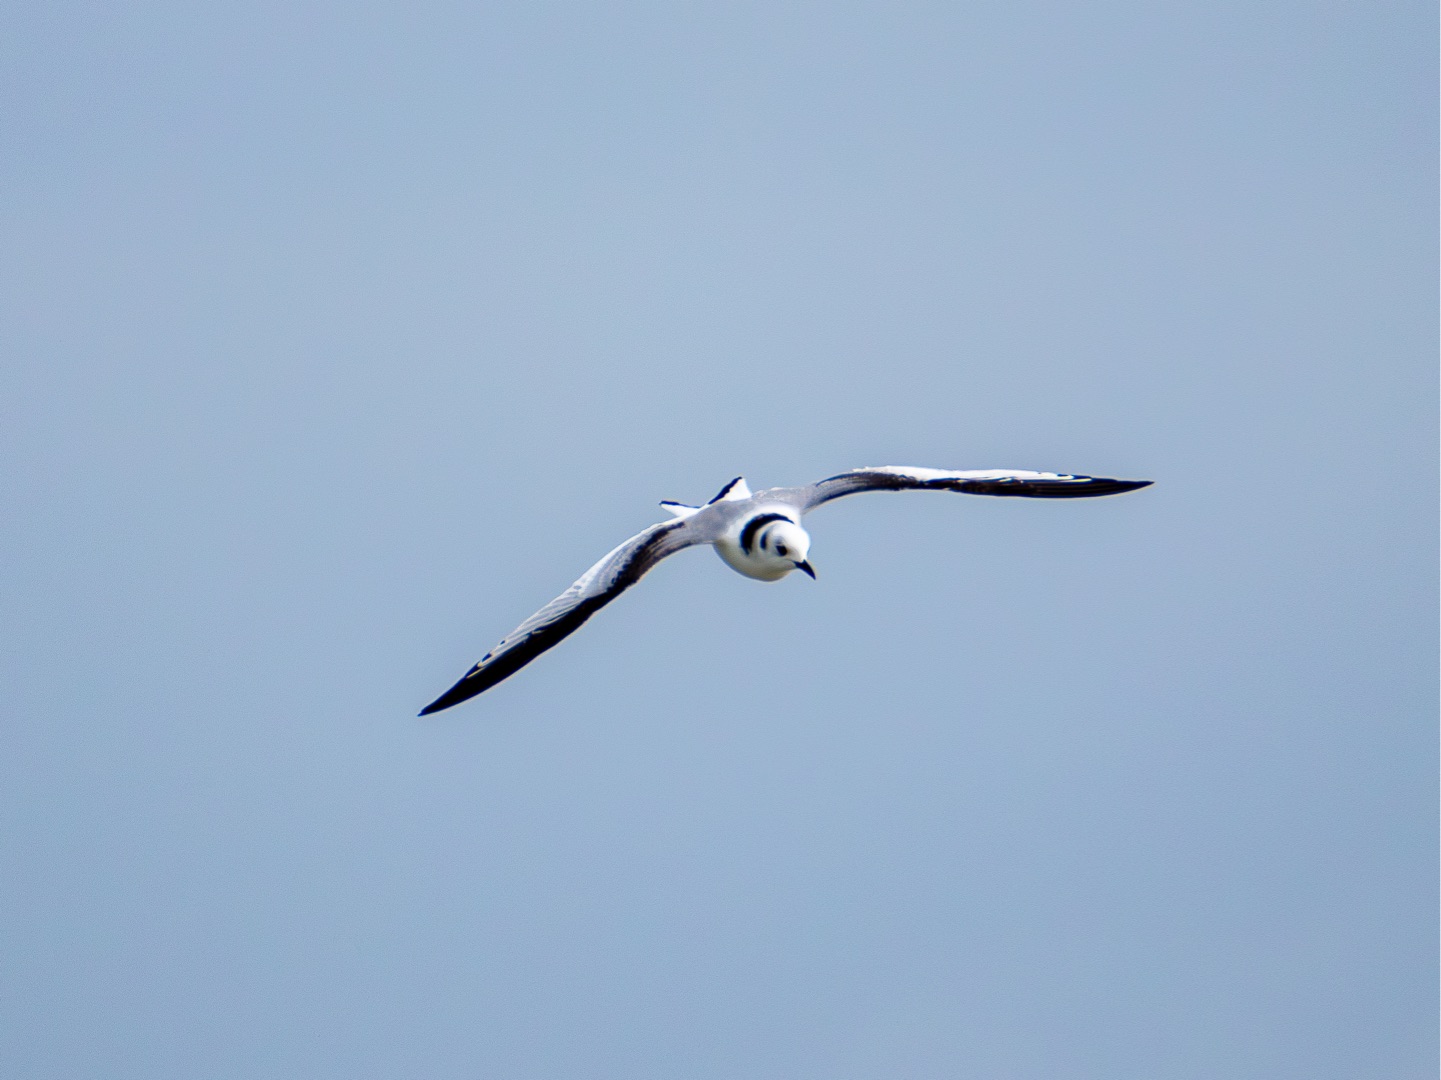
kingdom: Animalia
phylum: Chordata
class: Aves
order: Charadriiformes
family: Laridae
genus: Rissa
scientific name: Rissa tridactyla
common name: Ride
